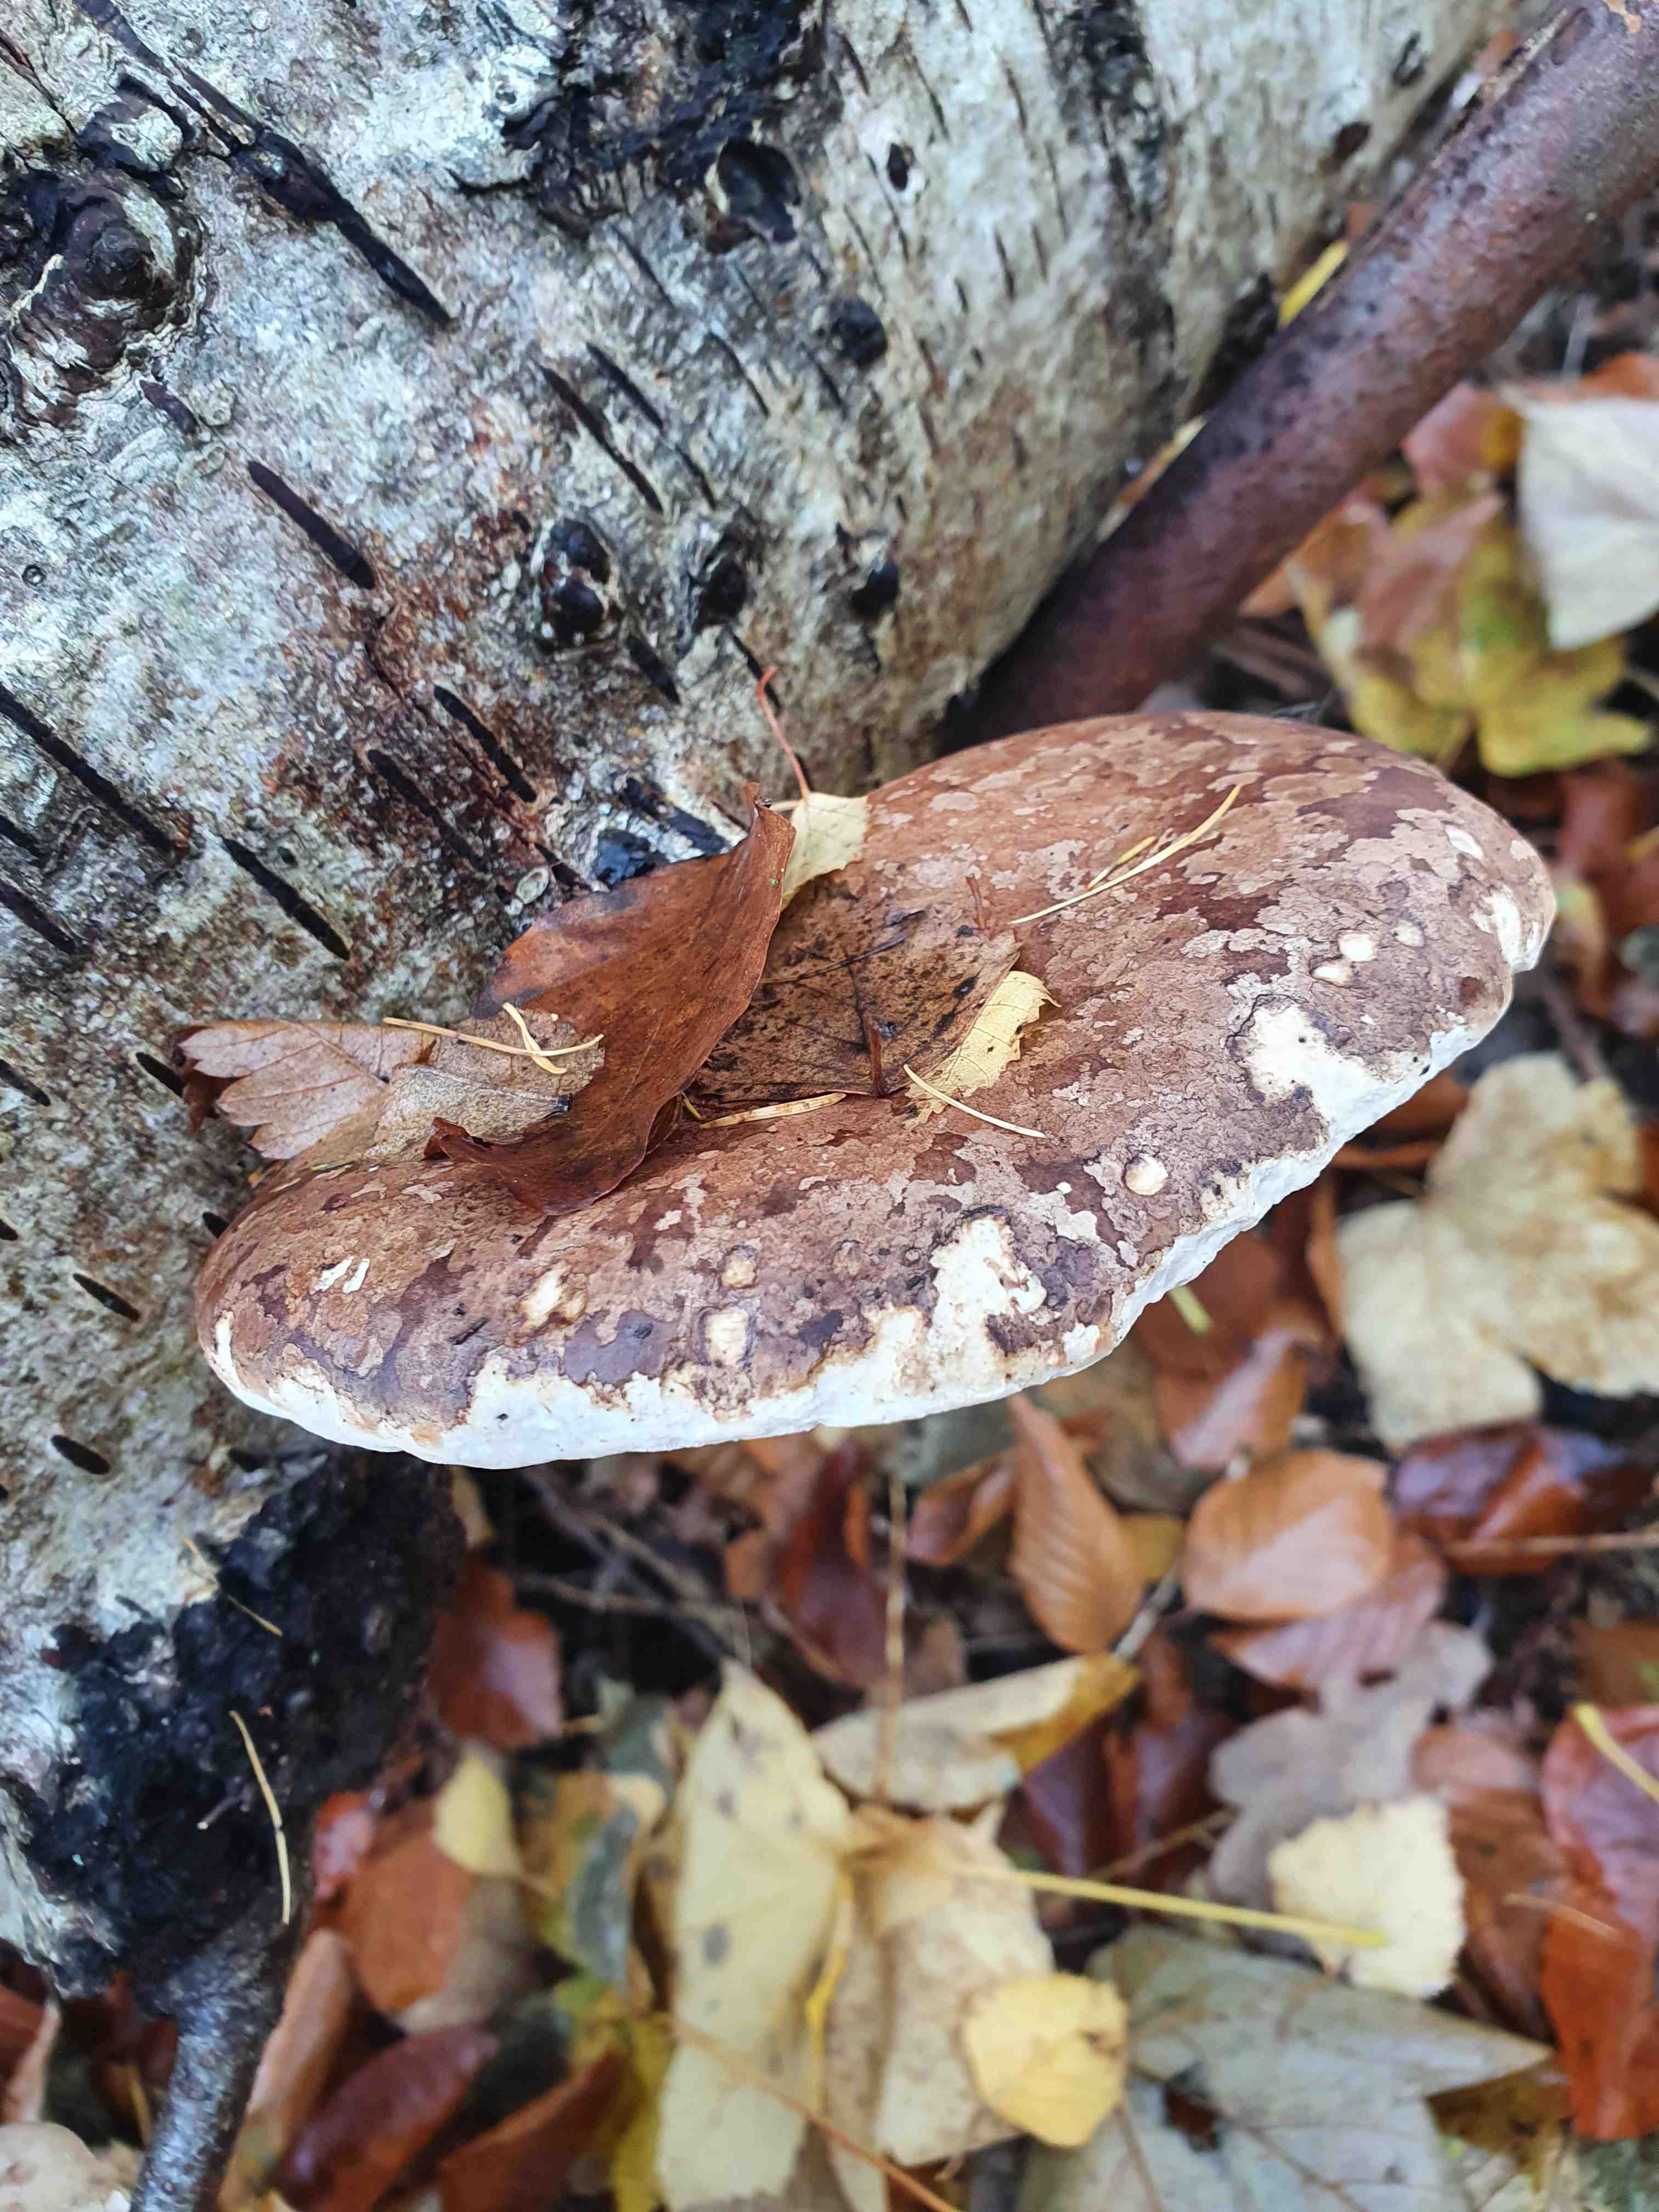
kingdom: Fungi
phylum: Basidiomycota
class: Agaricomycetes
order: Polyporales
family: Fomitopsidaceae
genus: Fomitopsis
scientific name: Fomitopsis betulina
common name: birkeporesvamp
